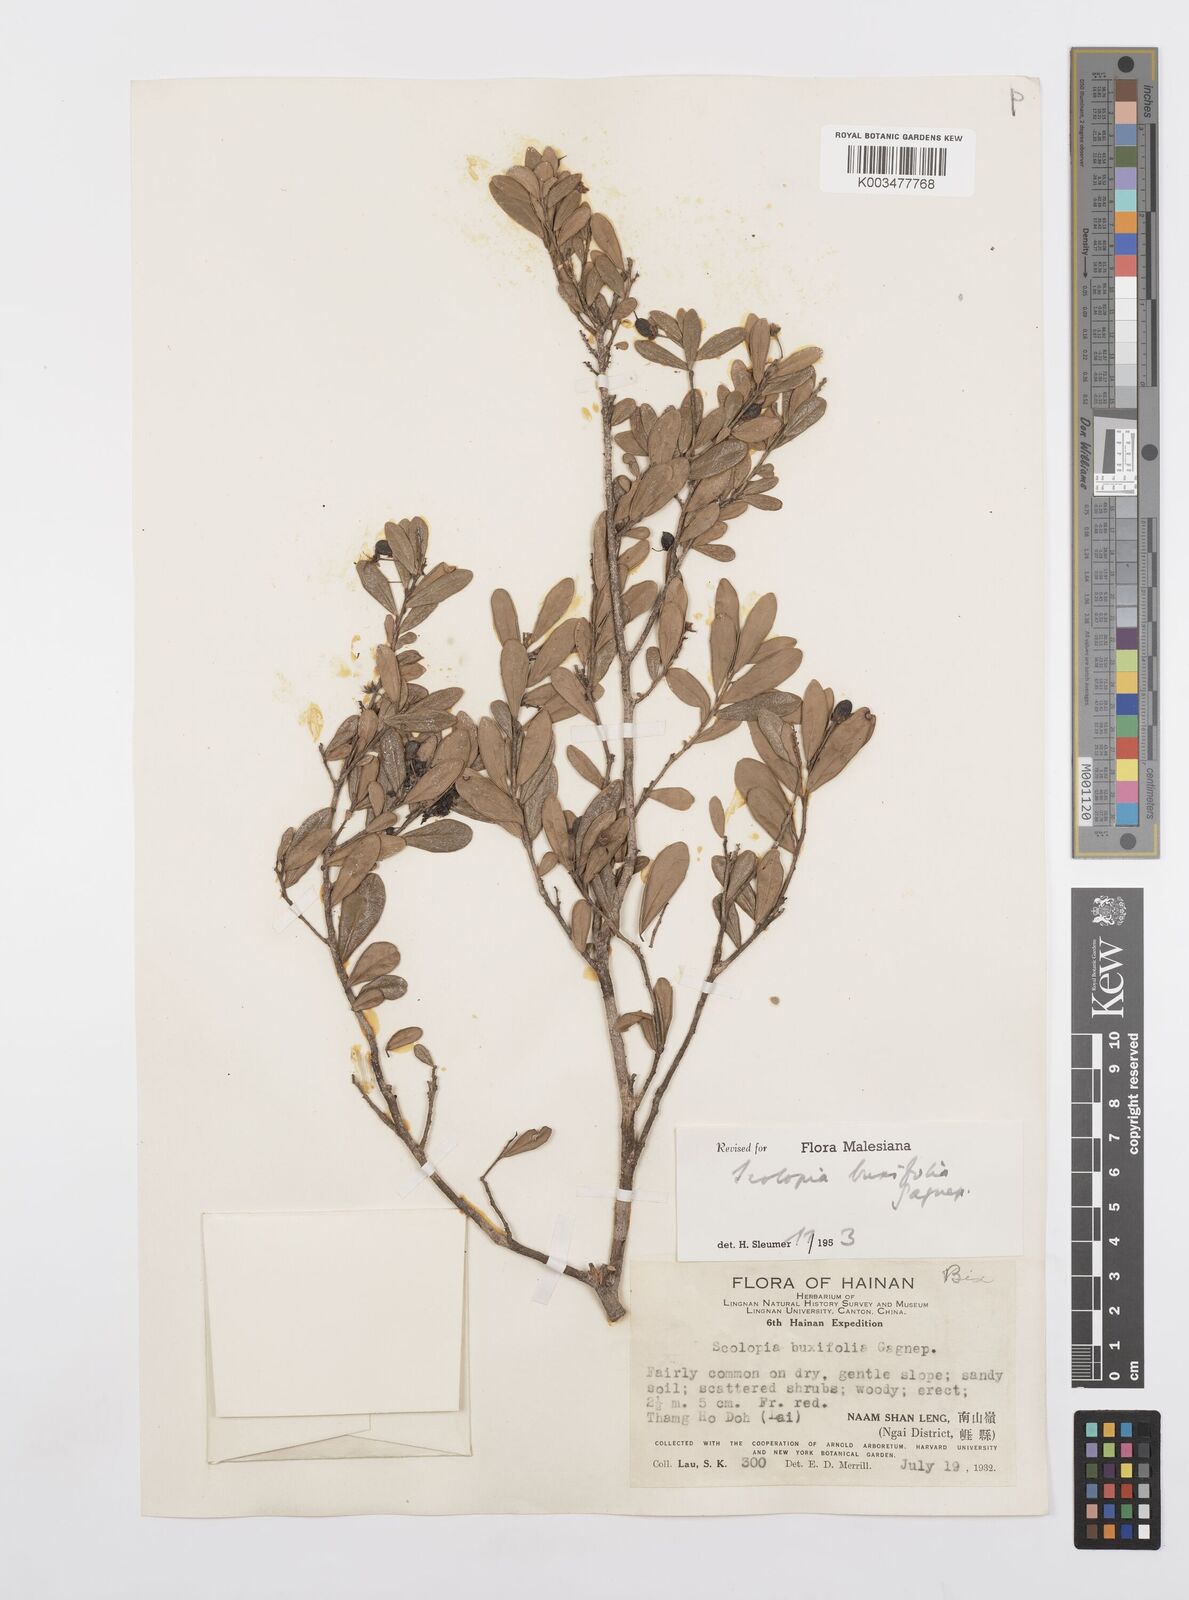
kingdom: Plantae
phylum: Tracheophyta
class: Magnoliopsida
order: Malpighiales
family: Salicaceae
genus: Scolopia
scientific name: Scolopia buxifolia
